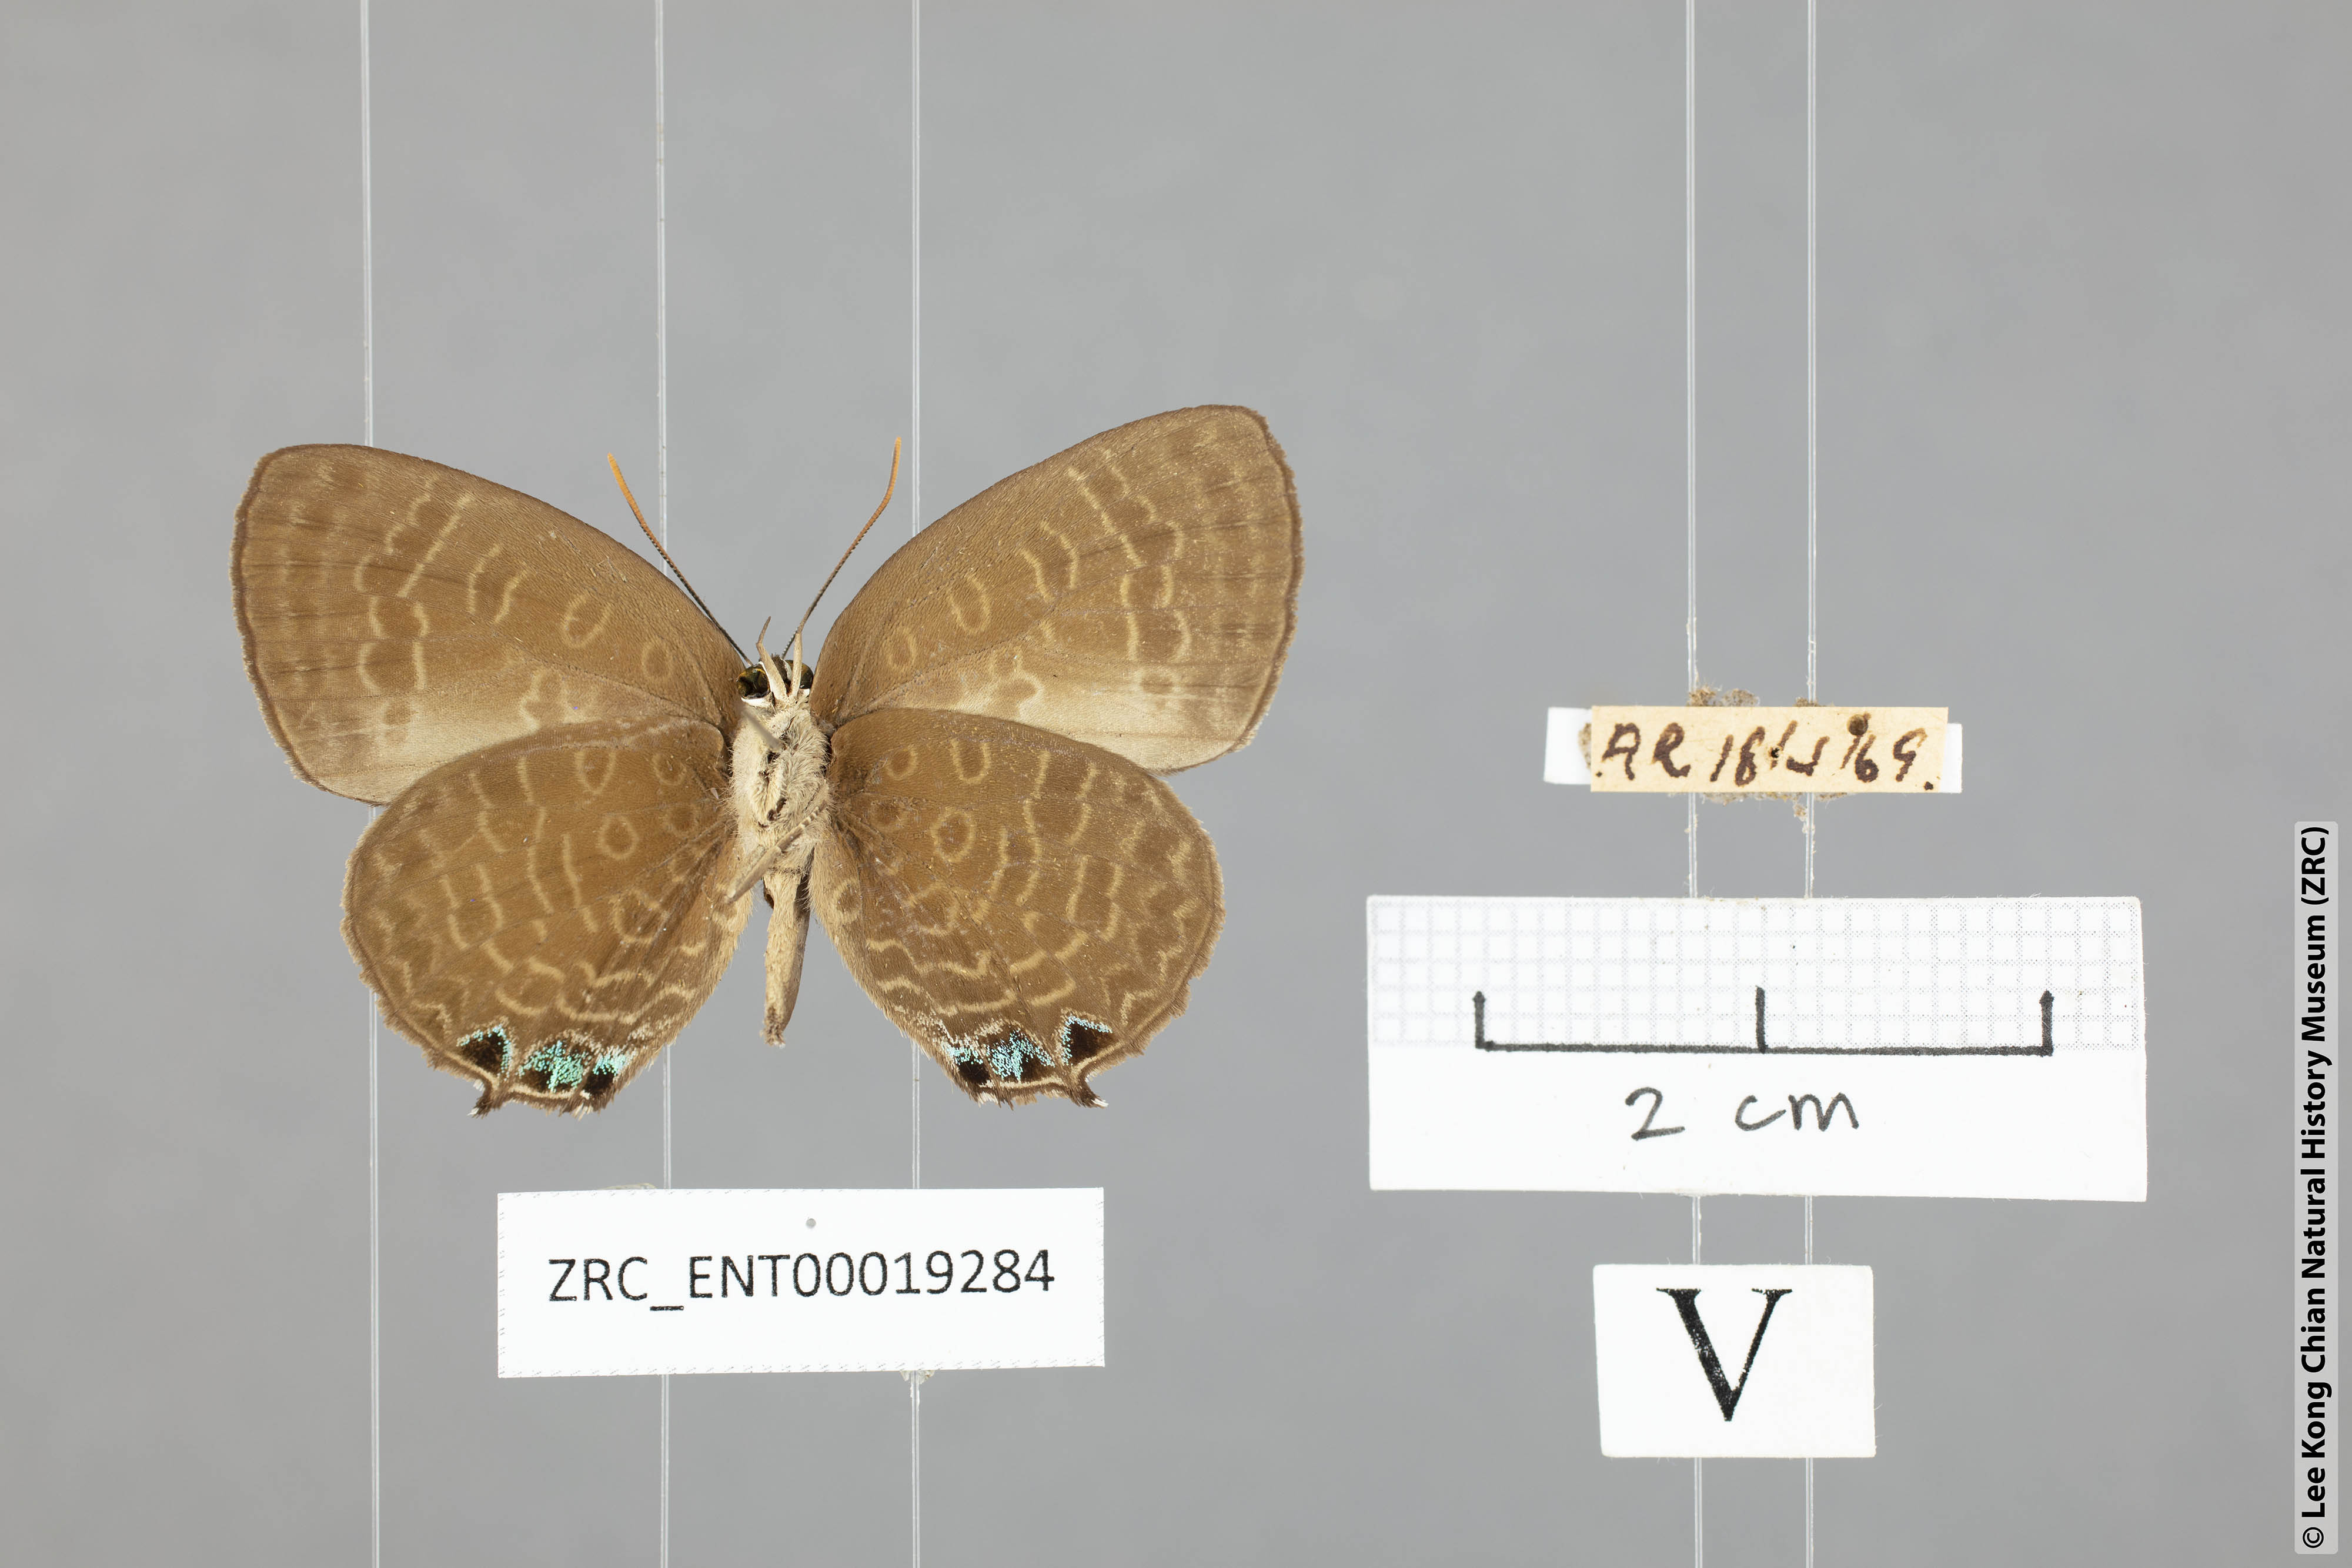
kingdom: Animalia
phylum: Arthropoda
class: Insecta
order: Lepidoptera
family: Lycaenidae
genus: Arhopala
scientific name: Arhopala aurea
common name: Long-celled oakblue
